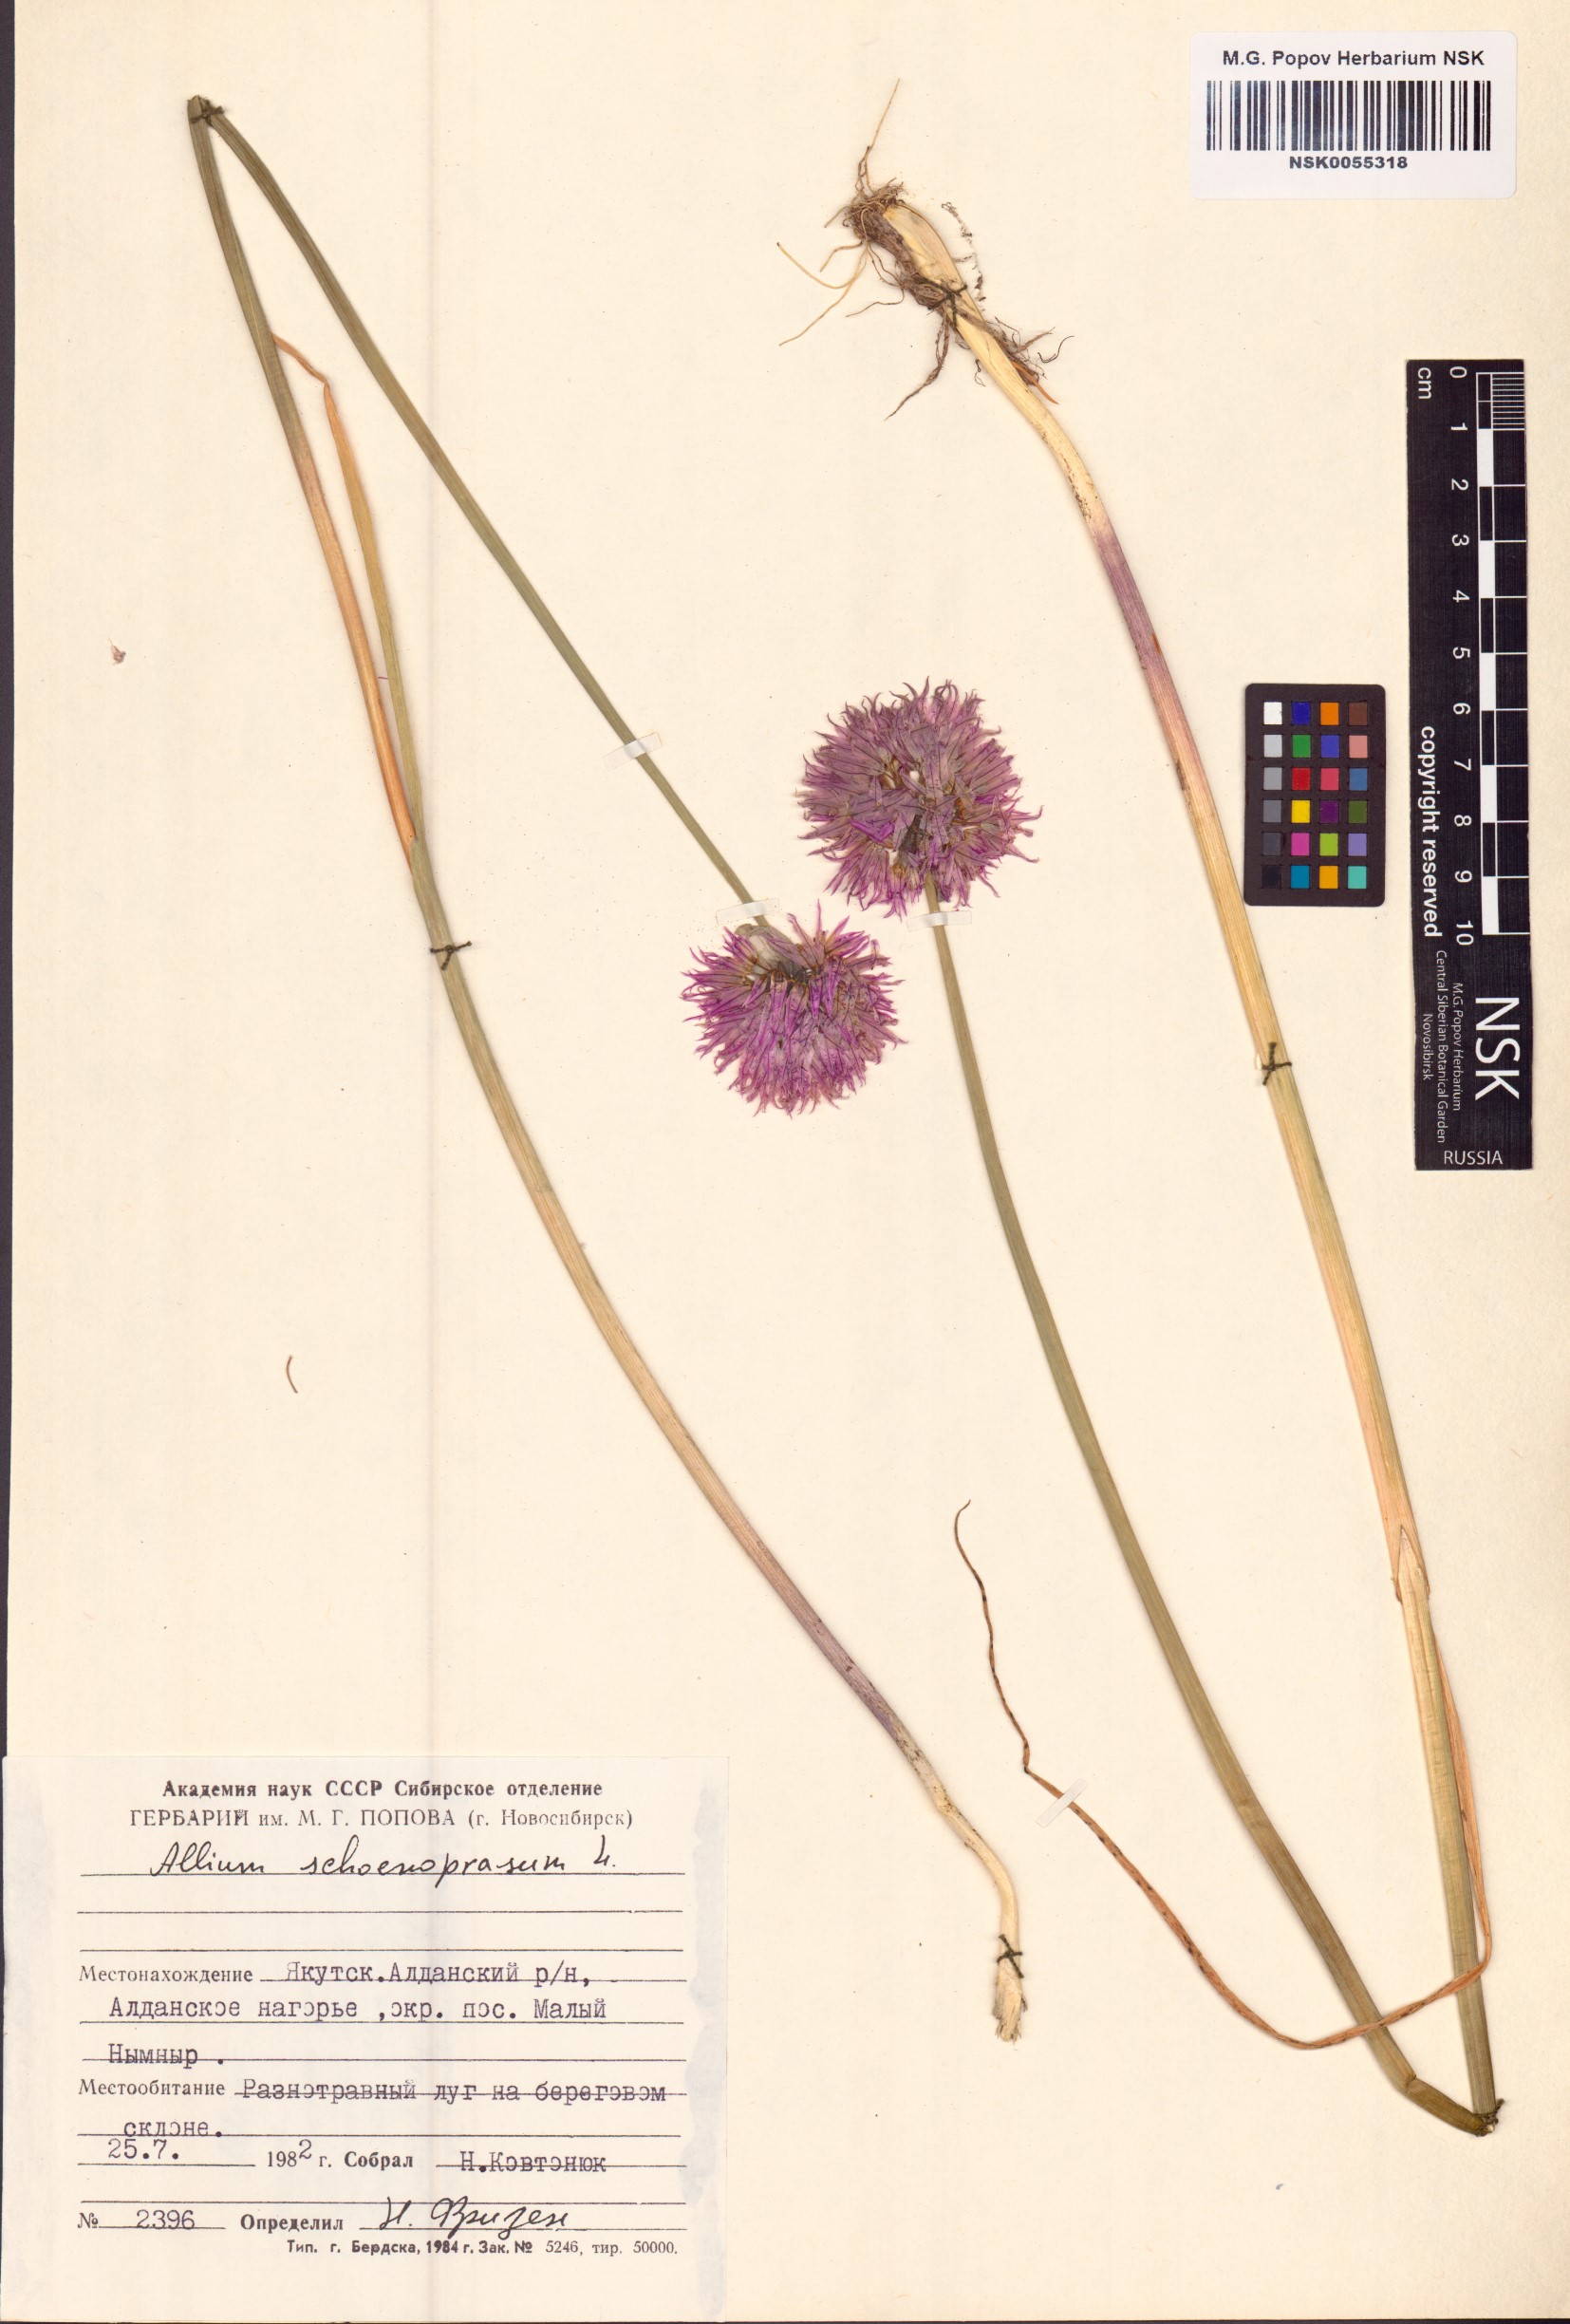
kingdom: Plantae
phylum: Tracheophyta
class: Liliopsida
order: Asparagales
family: Amaryllidaceae
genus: Allium
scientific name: Allium schoenoprasum
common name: Chives
